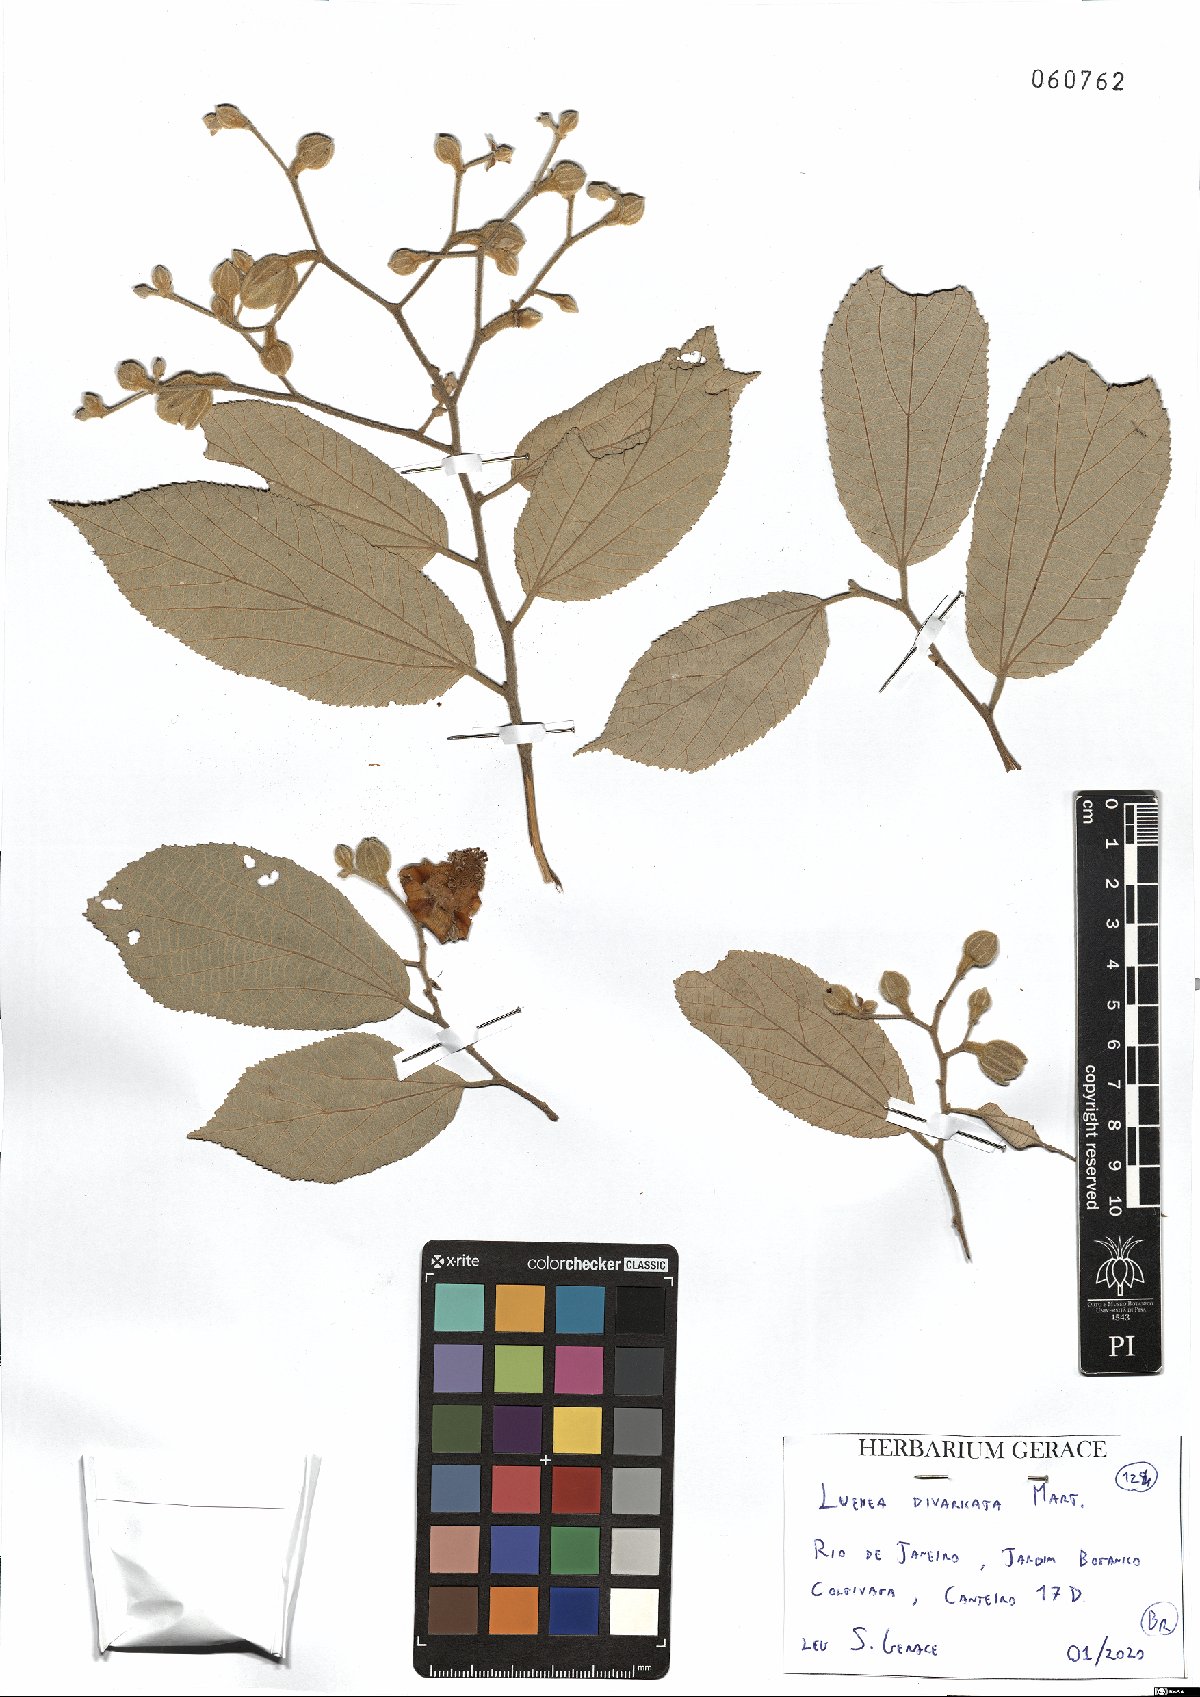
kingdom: Plantae
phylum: Tracheophyta
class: Magnoliopsida
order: Malvales
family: Malvaceae
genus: Luehea
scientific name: Luehea divaricata
